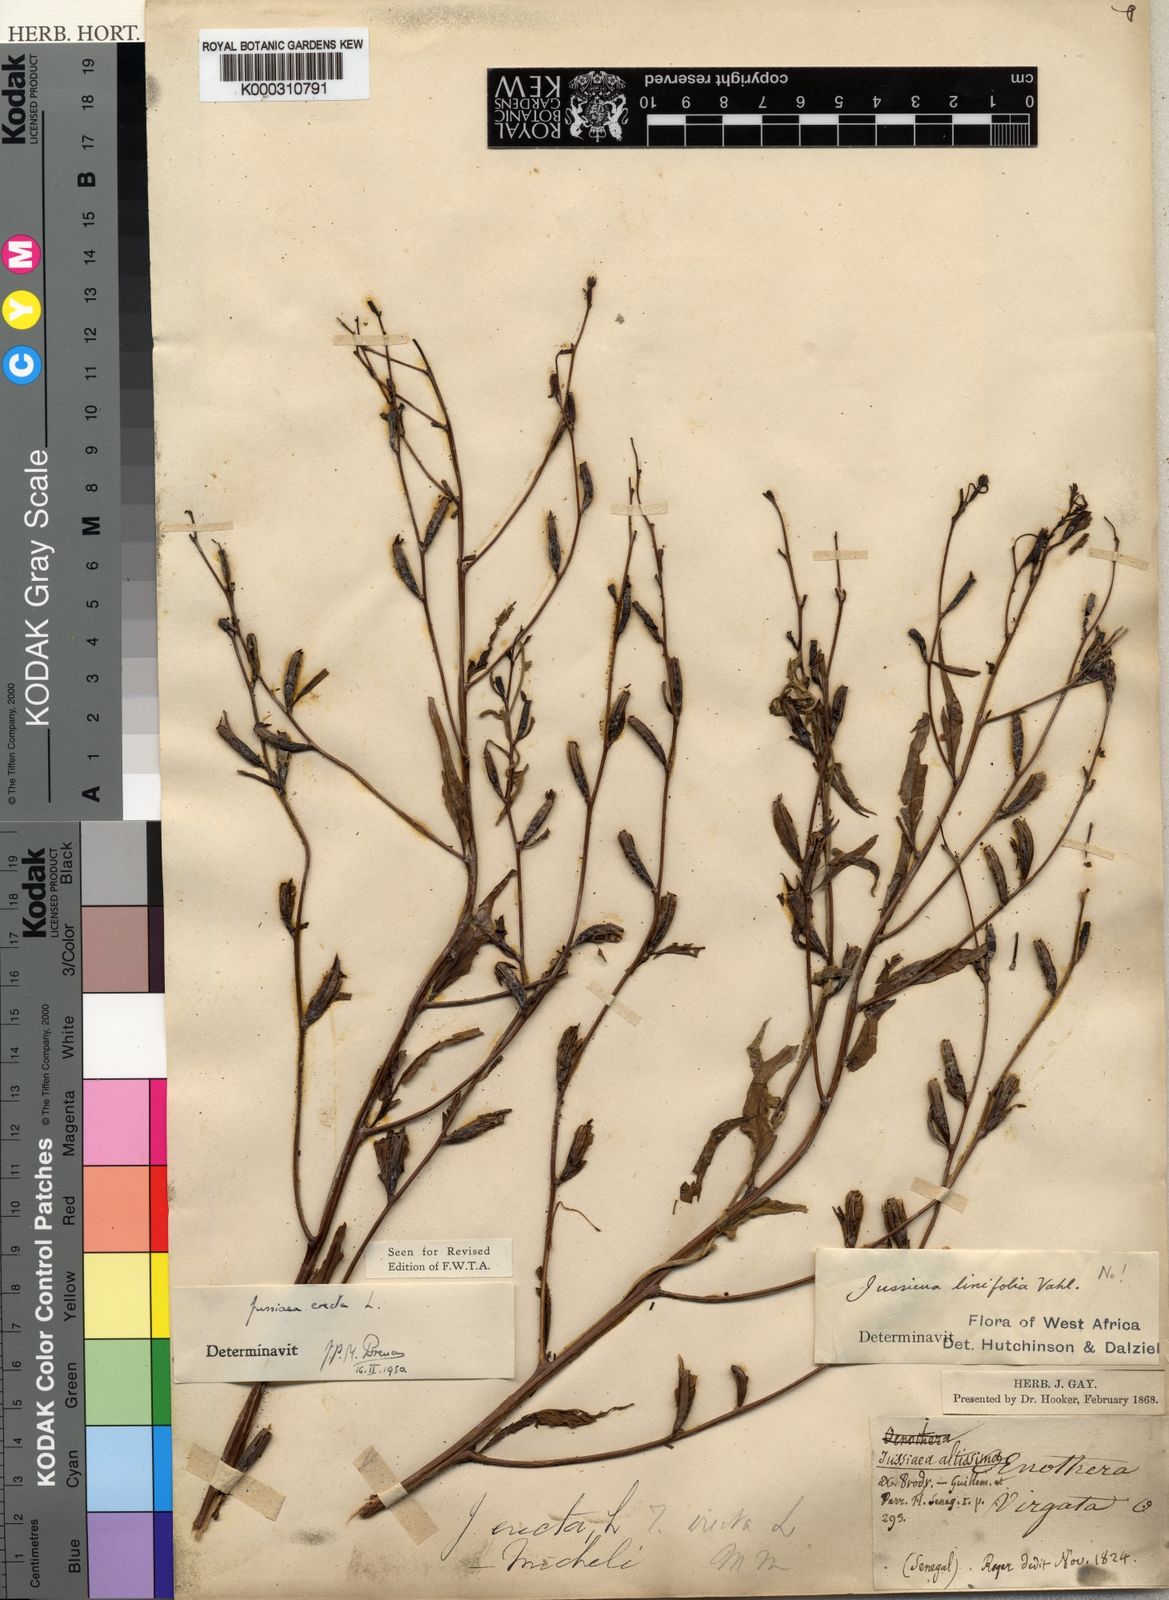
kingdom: Plantae
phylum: Tracheophyta
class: Magnoliopsida
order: Myrtales
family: Onagraceae
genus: Ludwigia
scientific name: Ludwigia erecta
